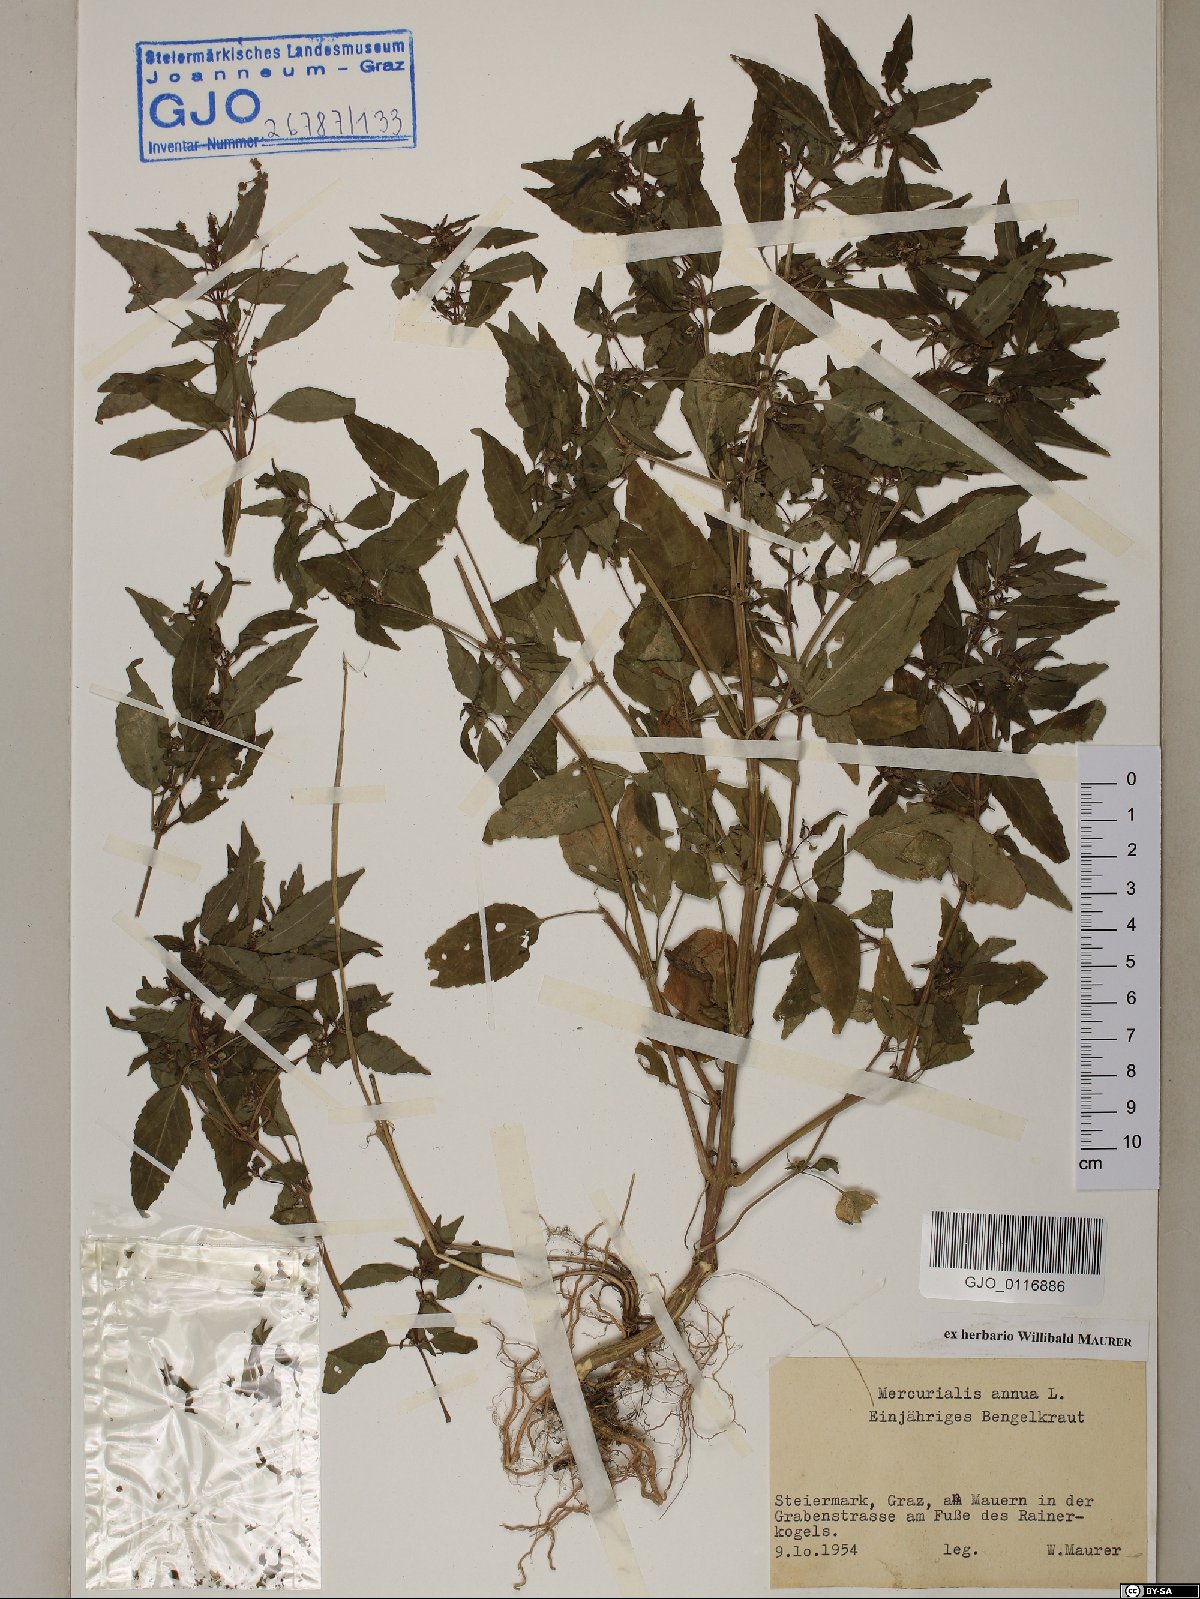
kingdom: Plantae
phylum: Tracheophyta
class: Magnoliopsida
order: Malpighiales
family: Euphorbiaceae
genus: Mercurialis
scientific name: Mercurialis annua
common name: Annual mercury
